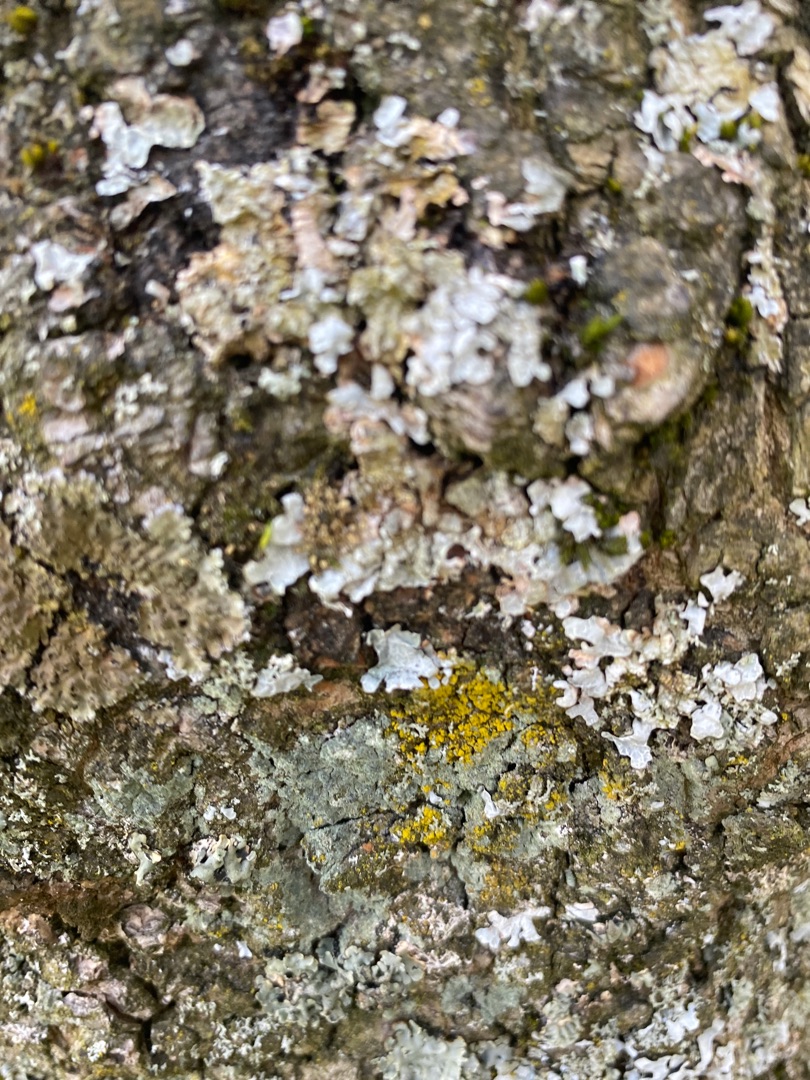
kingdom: Fungi
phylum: Ascomycota
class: Lecanoromycetes
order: Lecanorales
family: Parmeliaceae
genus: Parmelia
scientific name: Parmelia sulcata
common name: Rynket skållav
